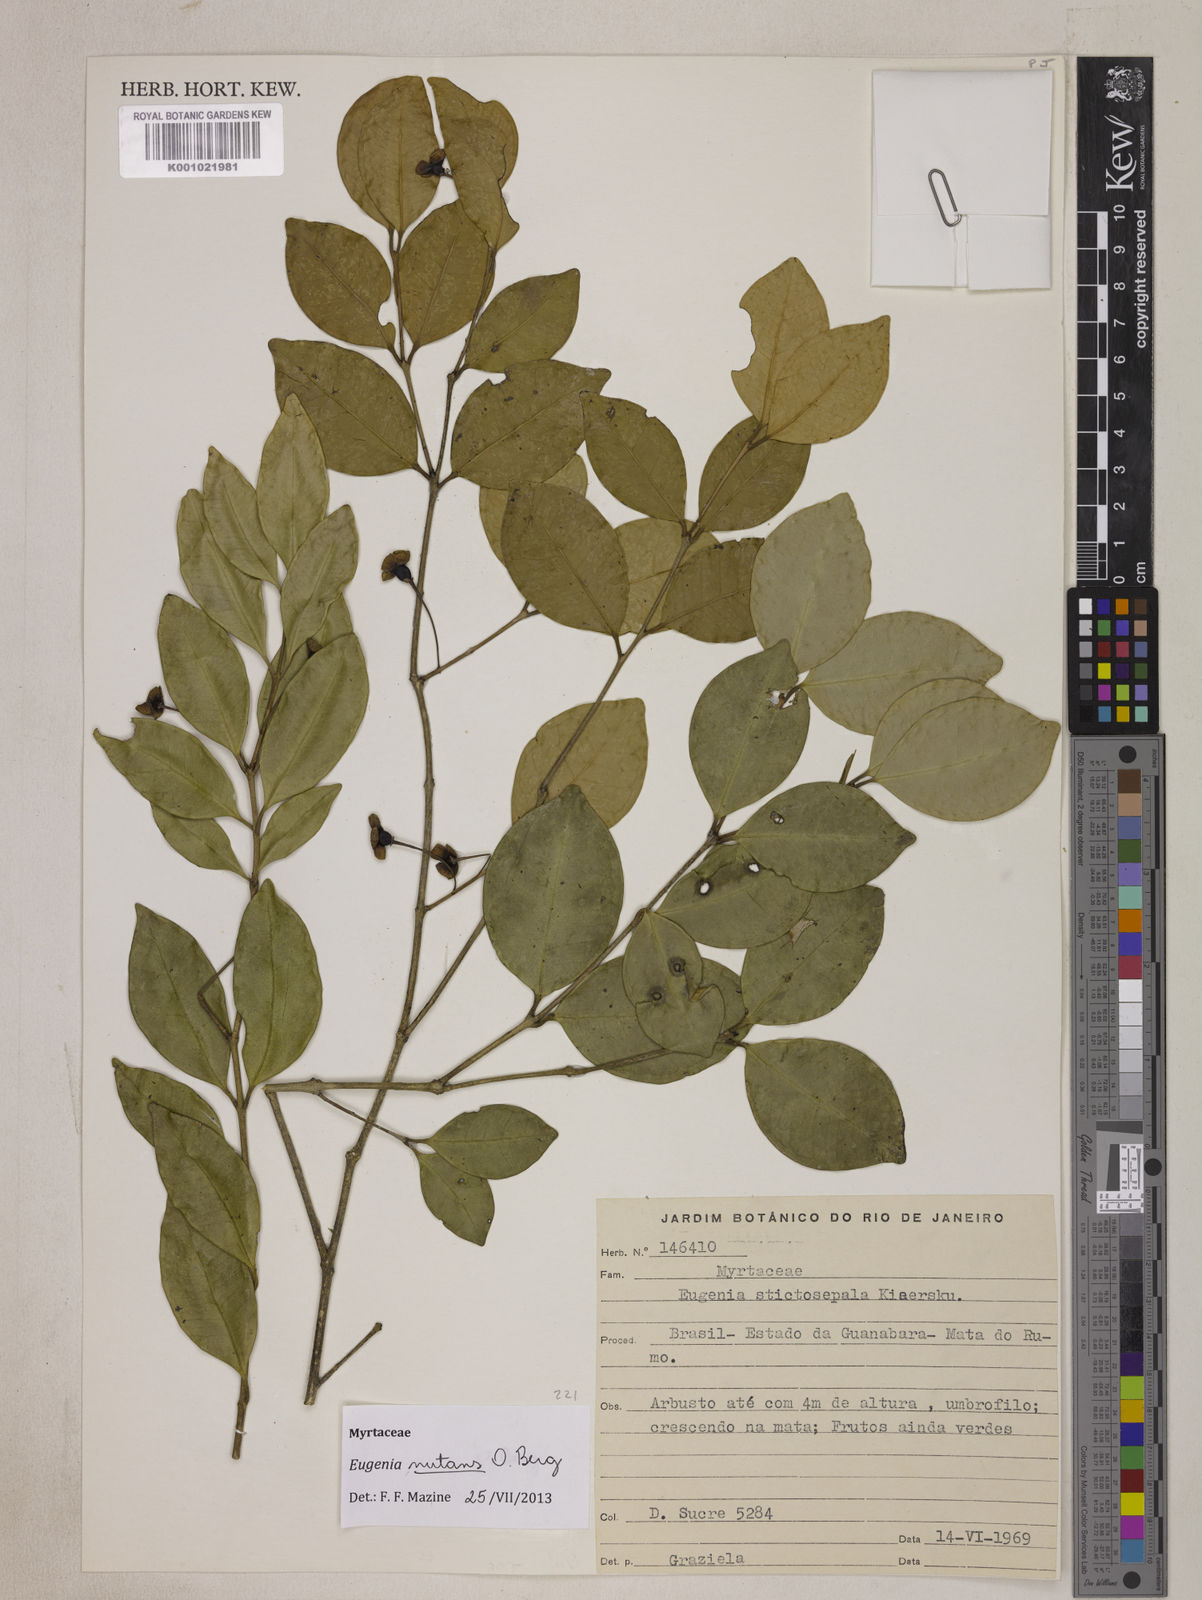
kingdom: Plantae
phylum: Tracheophyta
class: Magnoliopsida
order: Myrtales
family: Myrtaceae
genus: Eugenia
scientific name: Eugenia nutans
